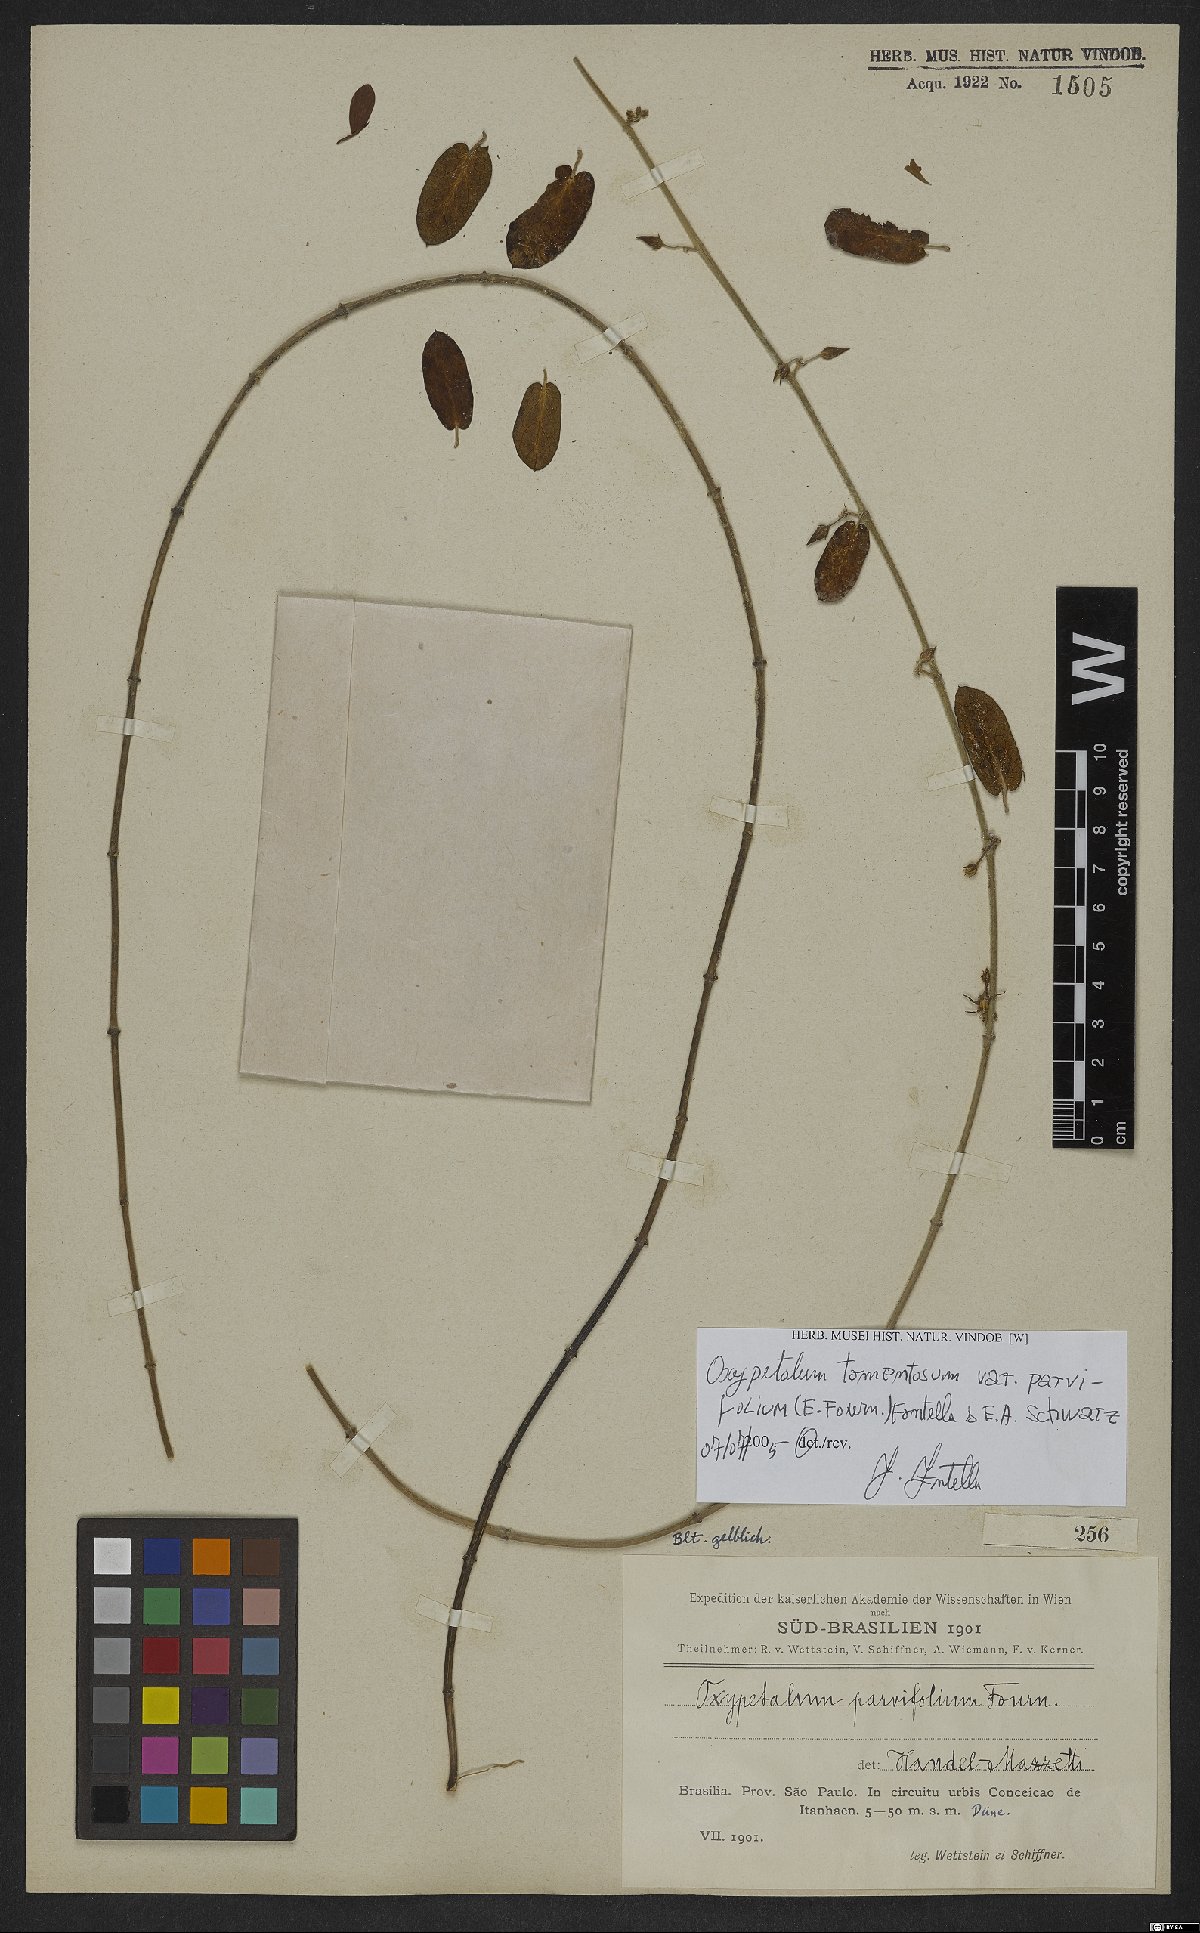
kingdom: Plantae
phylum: Tracheophyta
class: Magnoliopsida
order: Gentianales
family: Apocynaceae
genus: Oxypetalum
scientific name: Oxypetalum tomentosum
